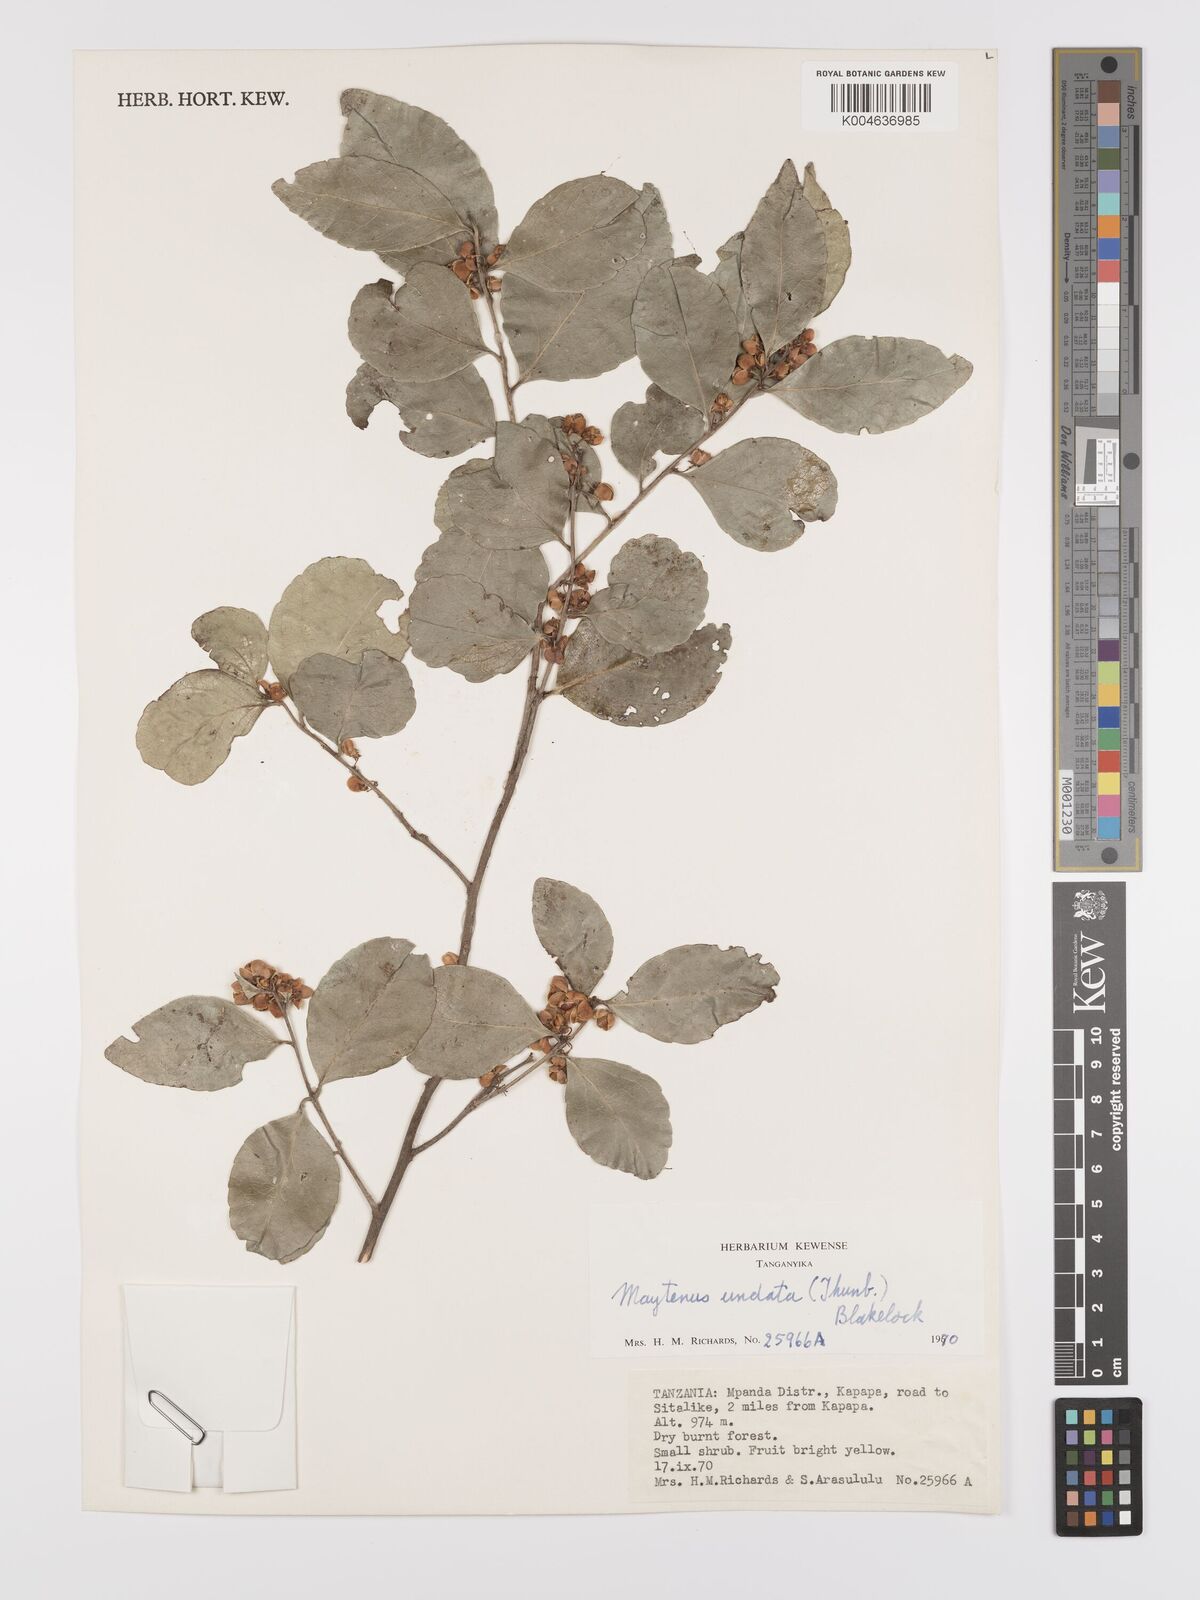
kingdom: Plantae
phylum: Tracheophyta
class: Magnoliopsida
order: Celastrales
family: Celastraceae
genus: Gymnosporia
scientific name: Gymnosporia undata
